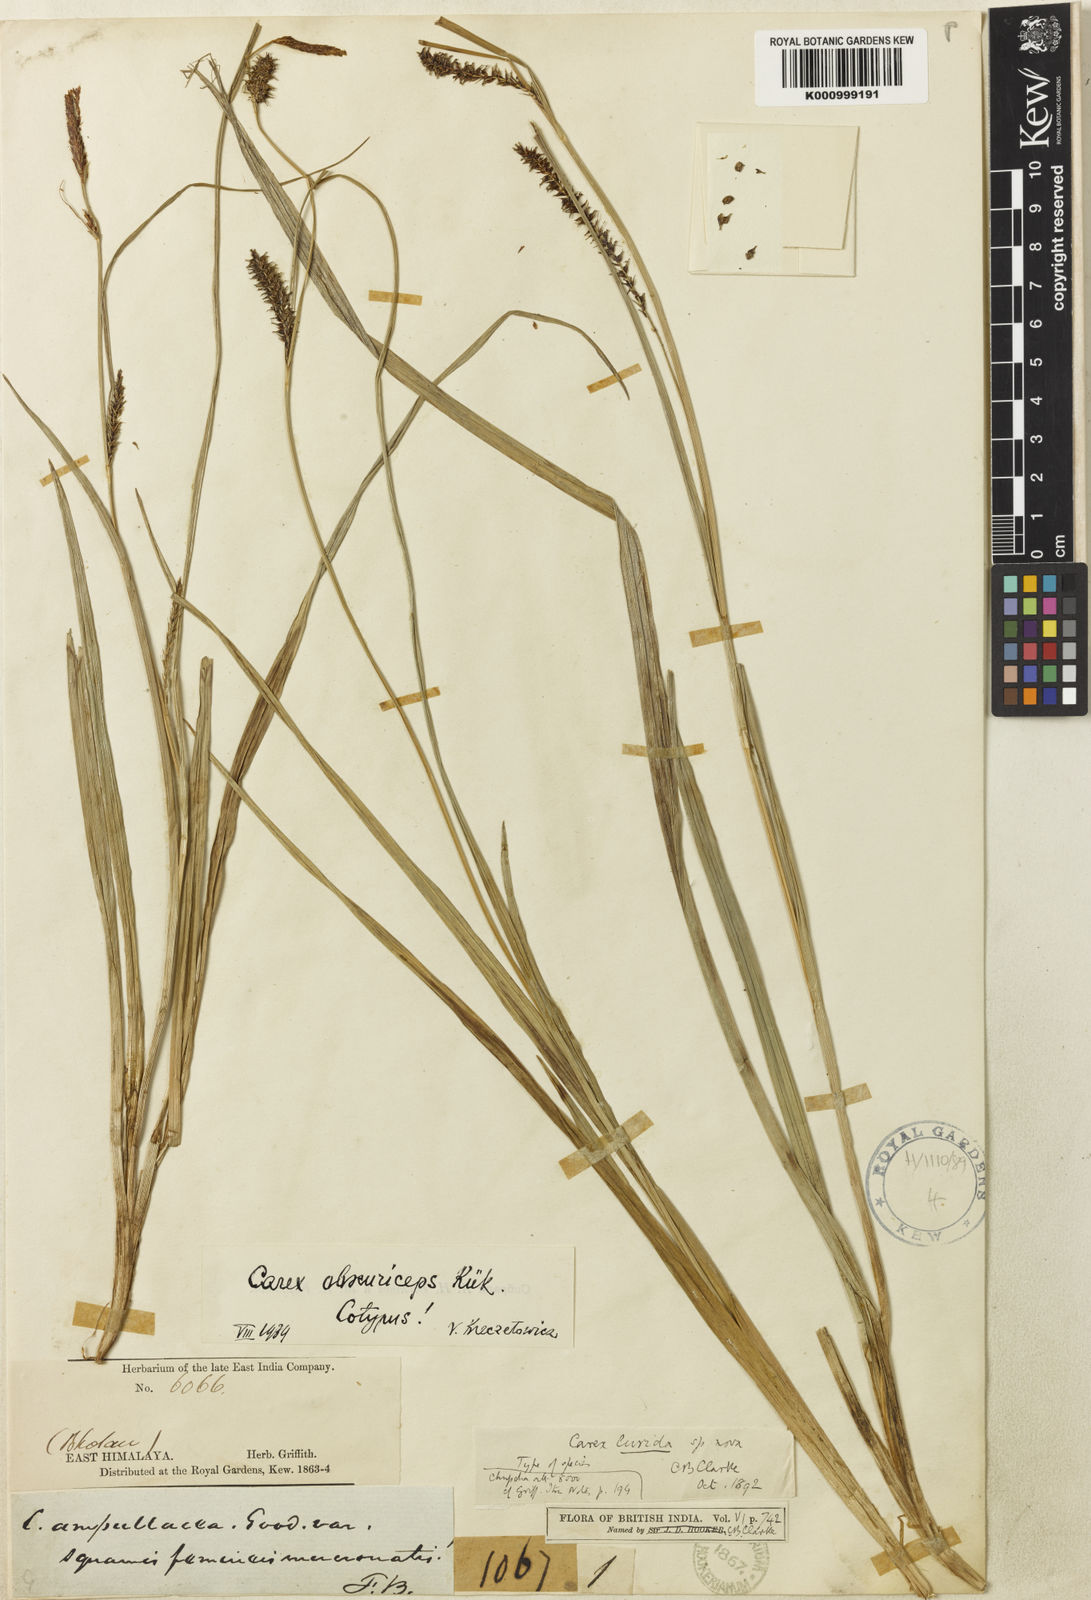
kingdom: Plantae
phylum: Tracheophyta
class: Liliopsida
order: Poales
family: Cyperaceae
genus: Carex
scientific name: Carex
